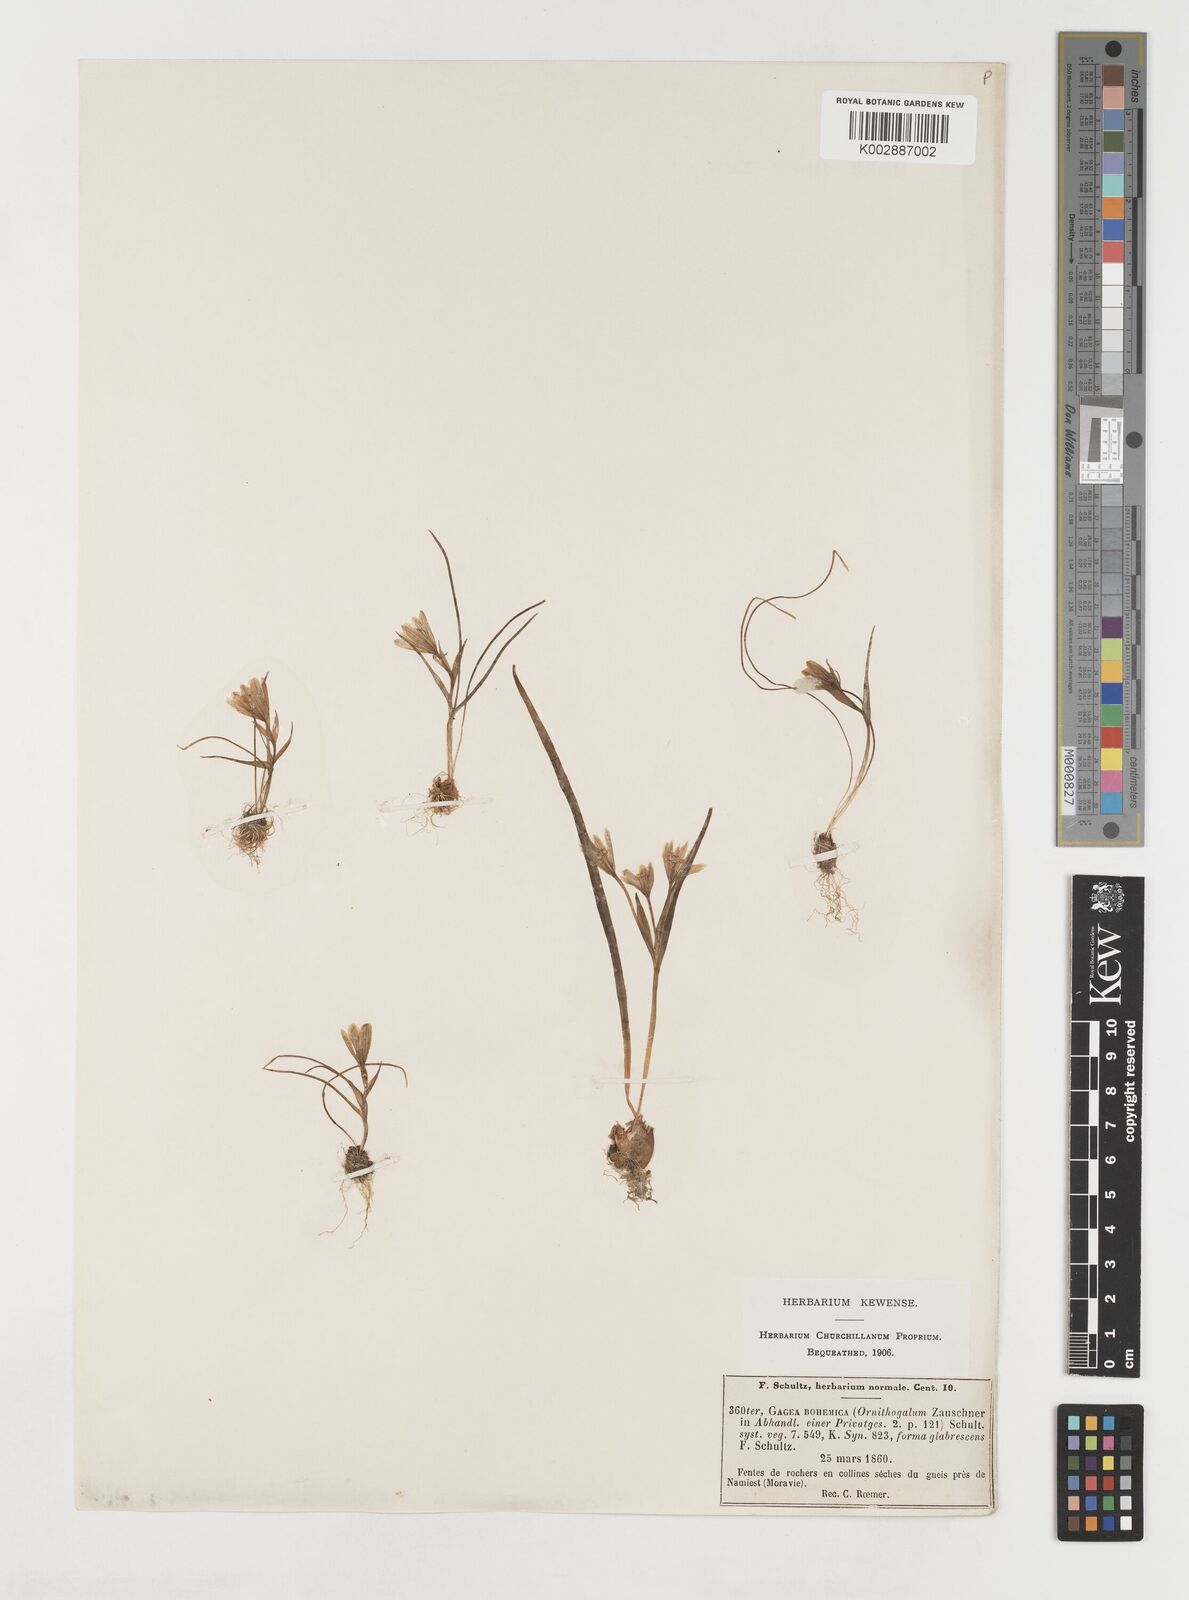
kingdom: Plantae
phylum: Tracheophyta
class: Liliopsida
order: Liliales
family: Liliaceae
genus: Gagea
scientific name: Gagea bohemica
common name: Early star-of-bethlehem
